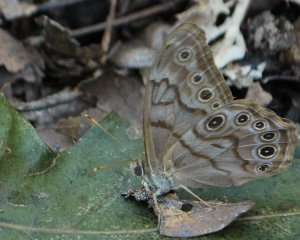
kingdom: Animalia
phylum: Arthropoda
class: Insecta
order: Lepidoptera
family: Nymphalidae
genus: Lethe
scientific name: Lethe creola
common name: Creole Pearly-Eye
